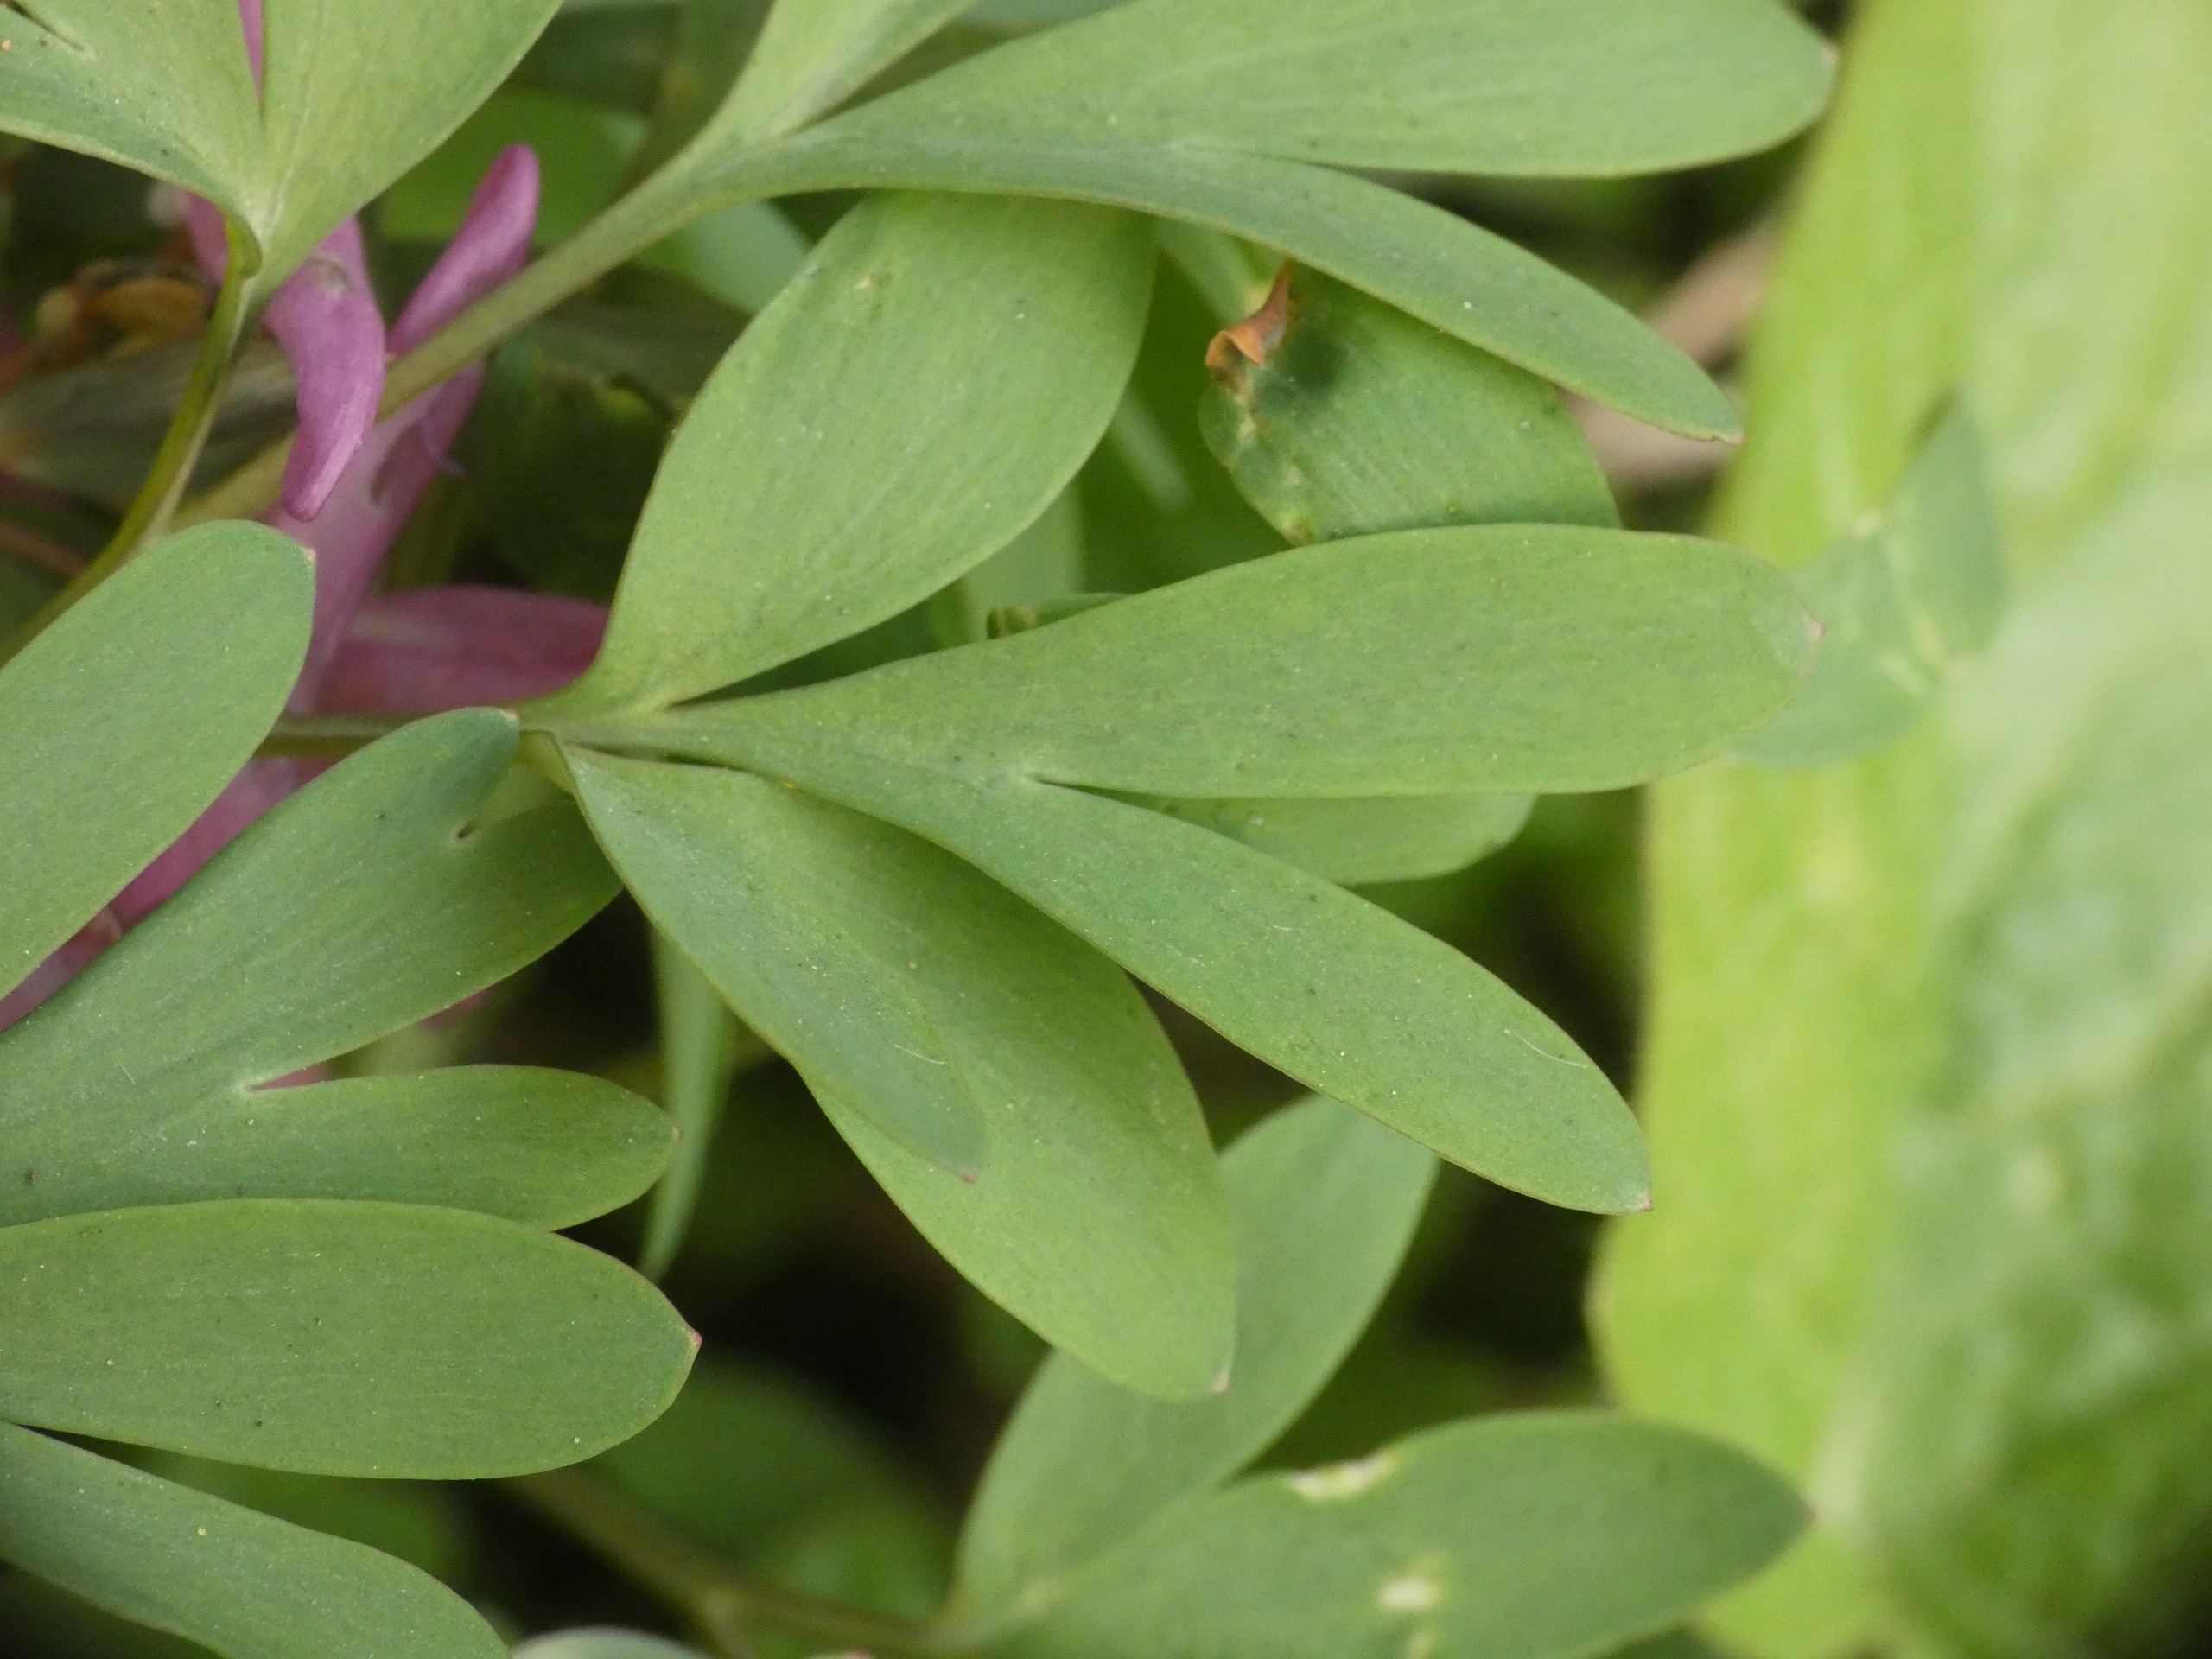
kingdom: Plantae
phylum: Tracheophyta
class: Magnoliopsida
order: Ranunculales
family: Papaveraceae
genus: Corydalis
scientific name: Corydalis solida
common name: Langstilket lærkespore
